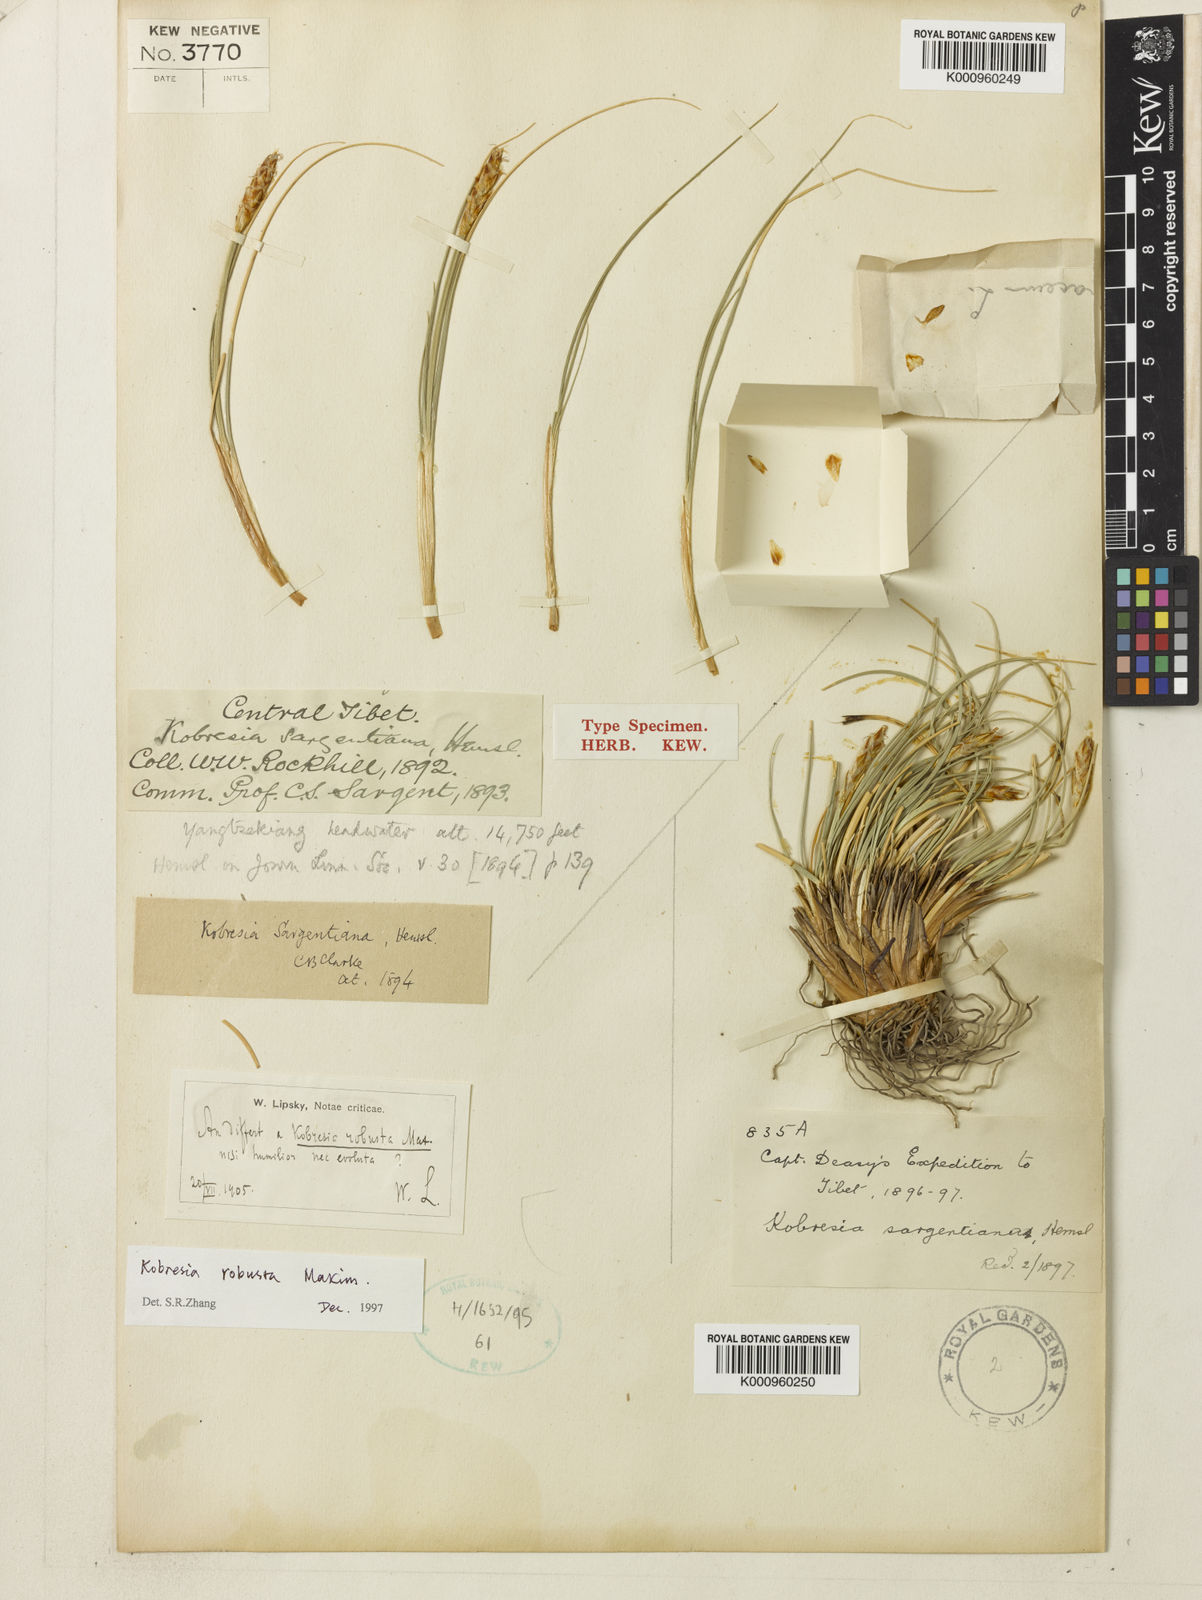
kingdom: Plantae
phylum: Tracheophyta
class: Liliopsida
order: Poales
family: Cyperaceae
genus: Carex
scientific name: Carex sargentiana
